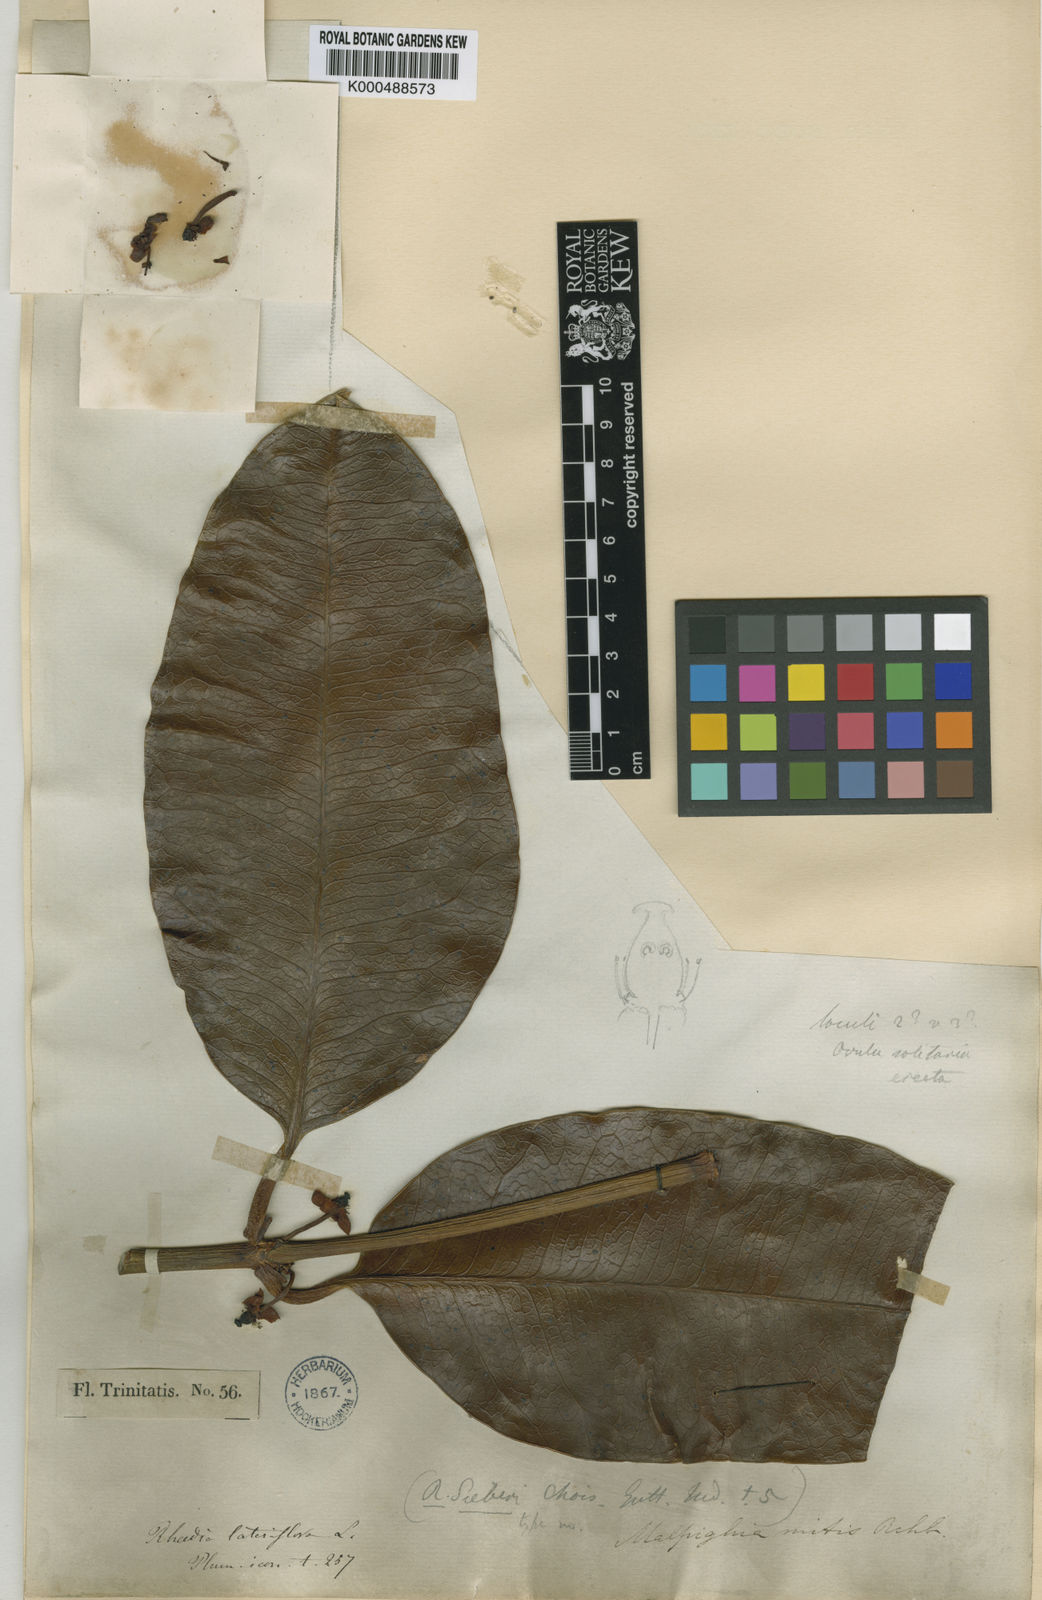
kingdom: Plantae
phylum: Tracheophyta
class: Magnoliopsida
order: Malpighiales
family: Clusiaceae
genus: Garcinia
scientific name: Garcinia lateriflora
